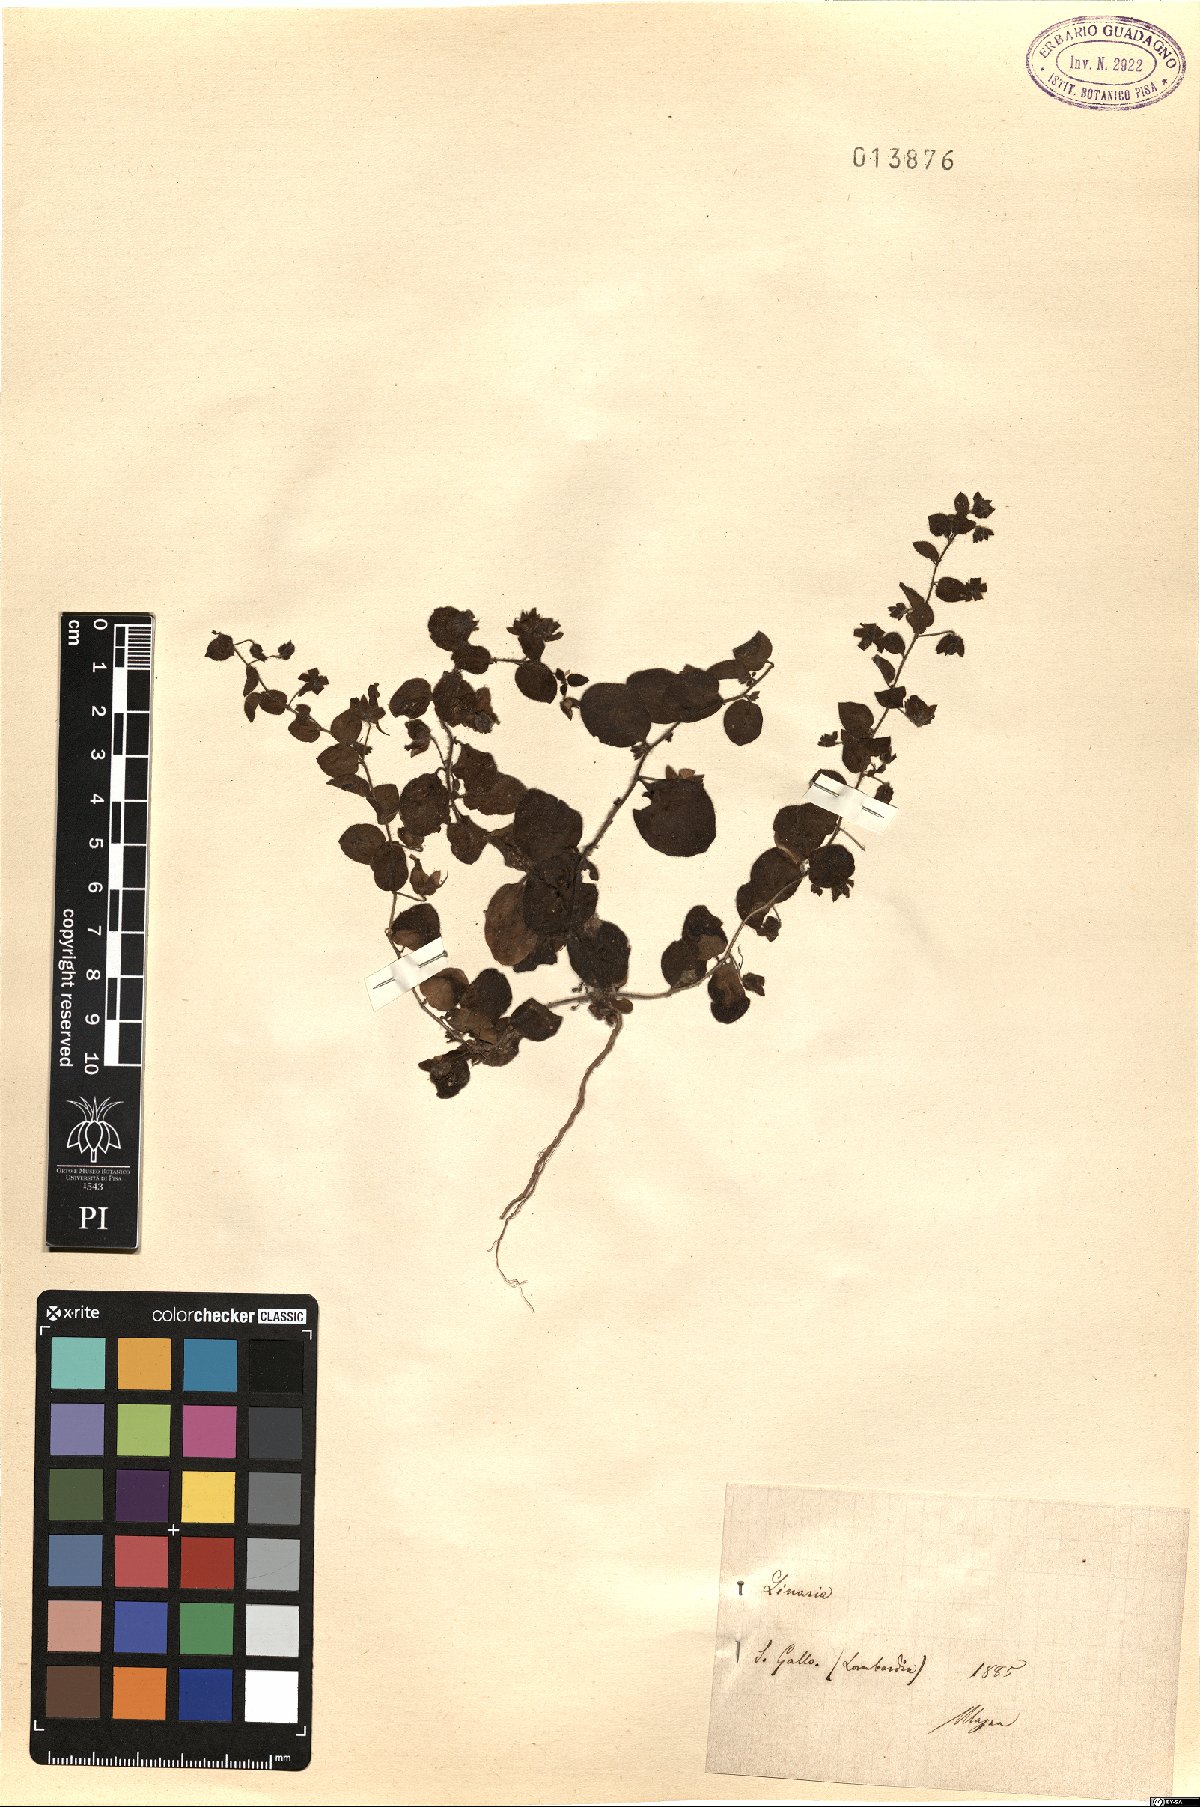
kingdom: Plantae
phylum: Tracheophyta
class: Magnoliopsida
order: Lamiales
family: Plantaginaceae
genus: Linaria
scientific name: Linaria
